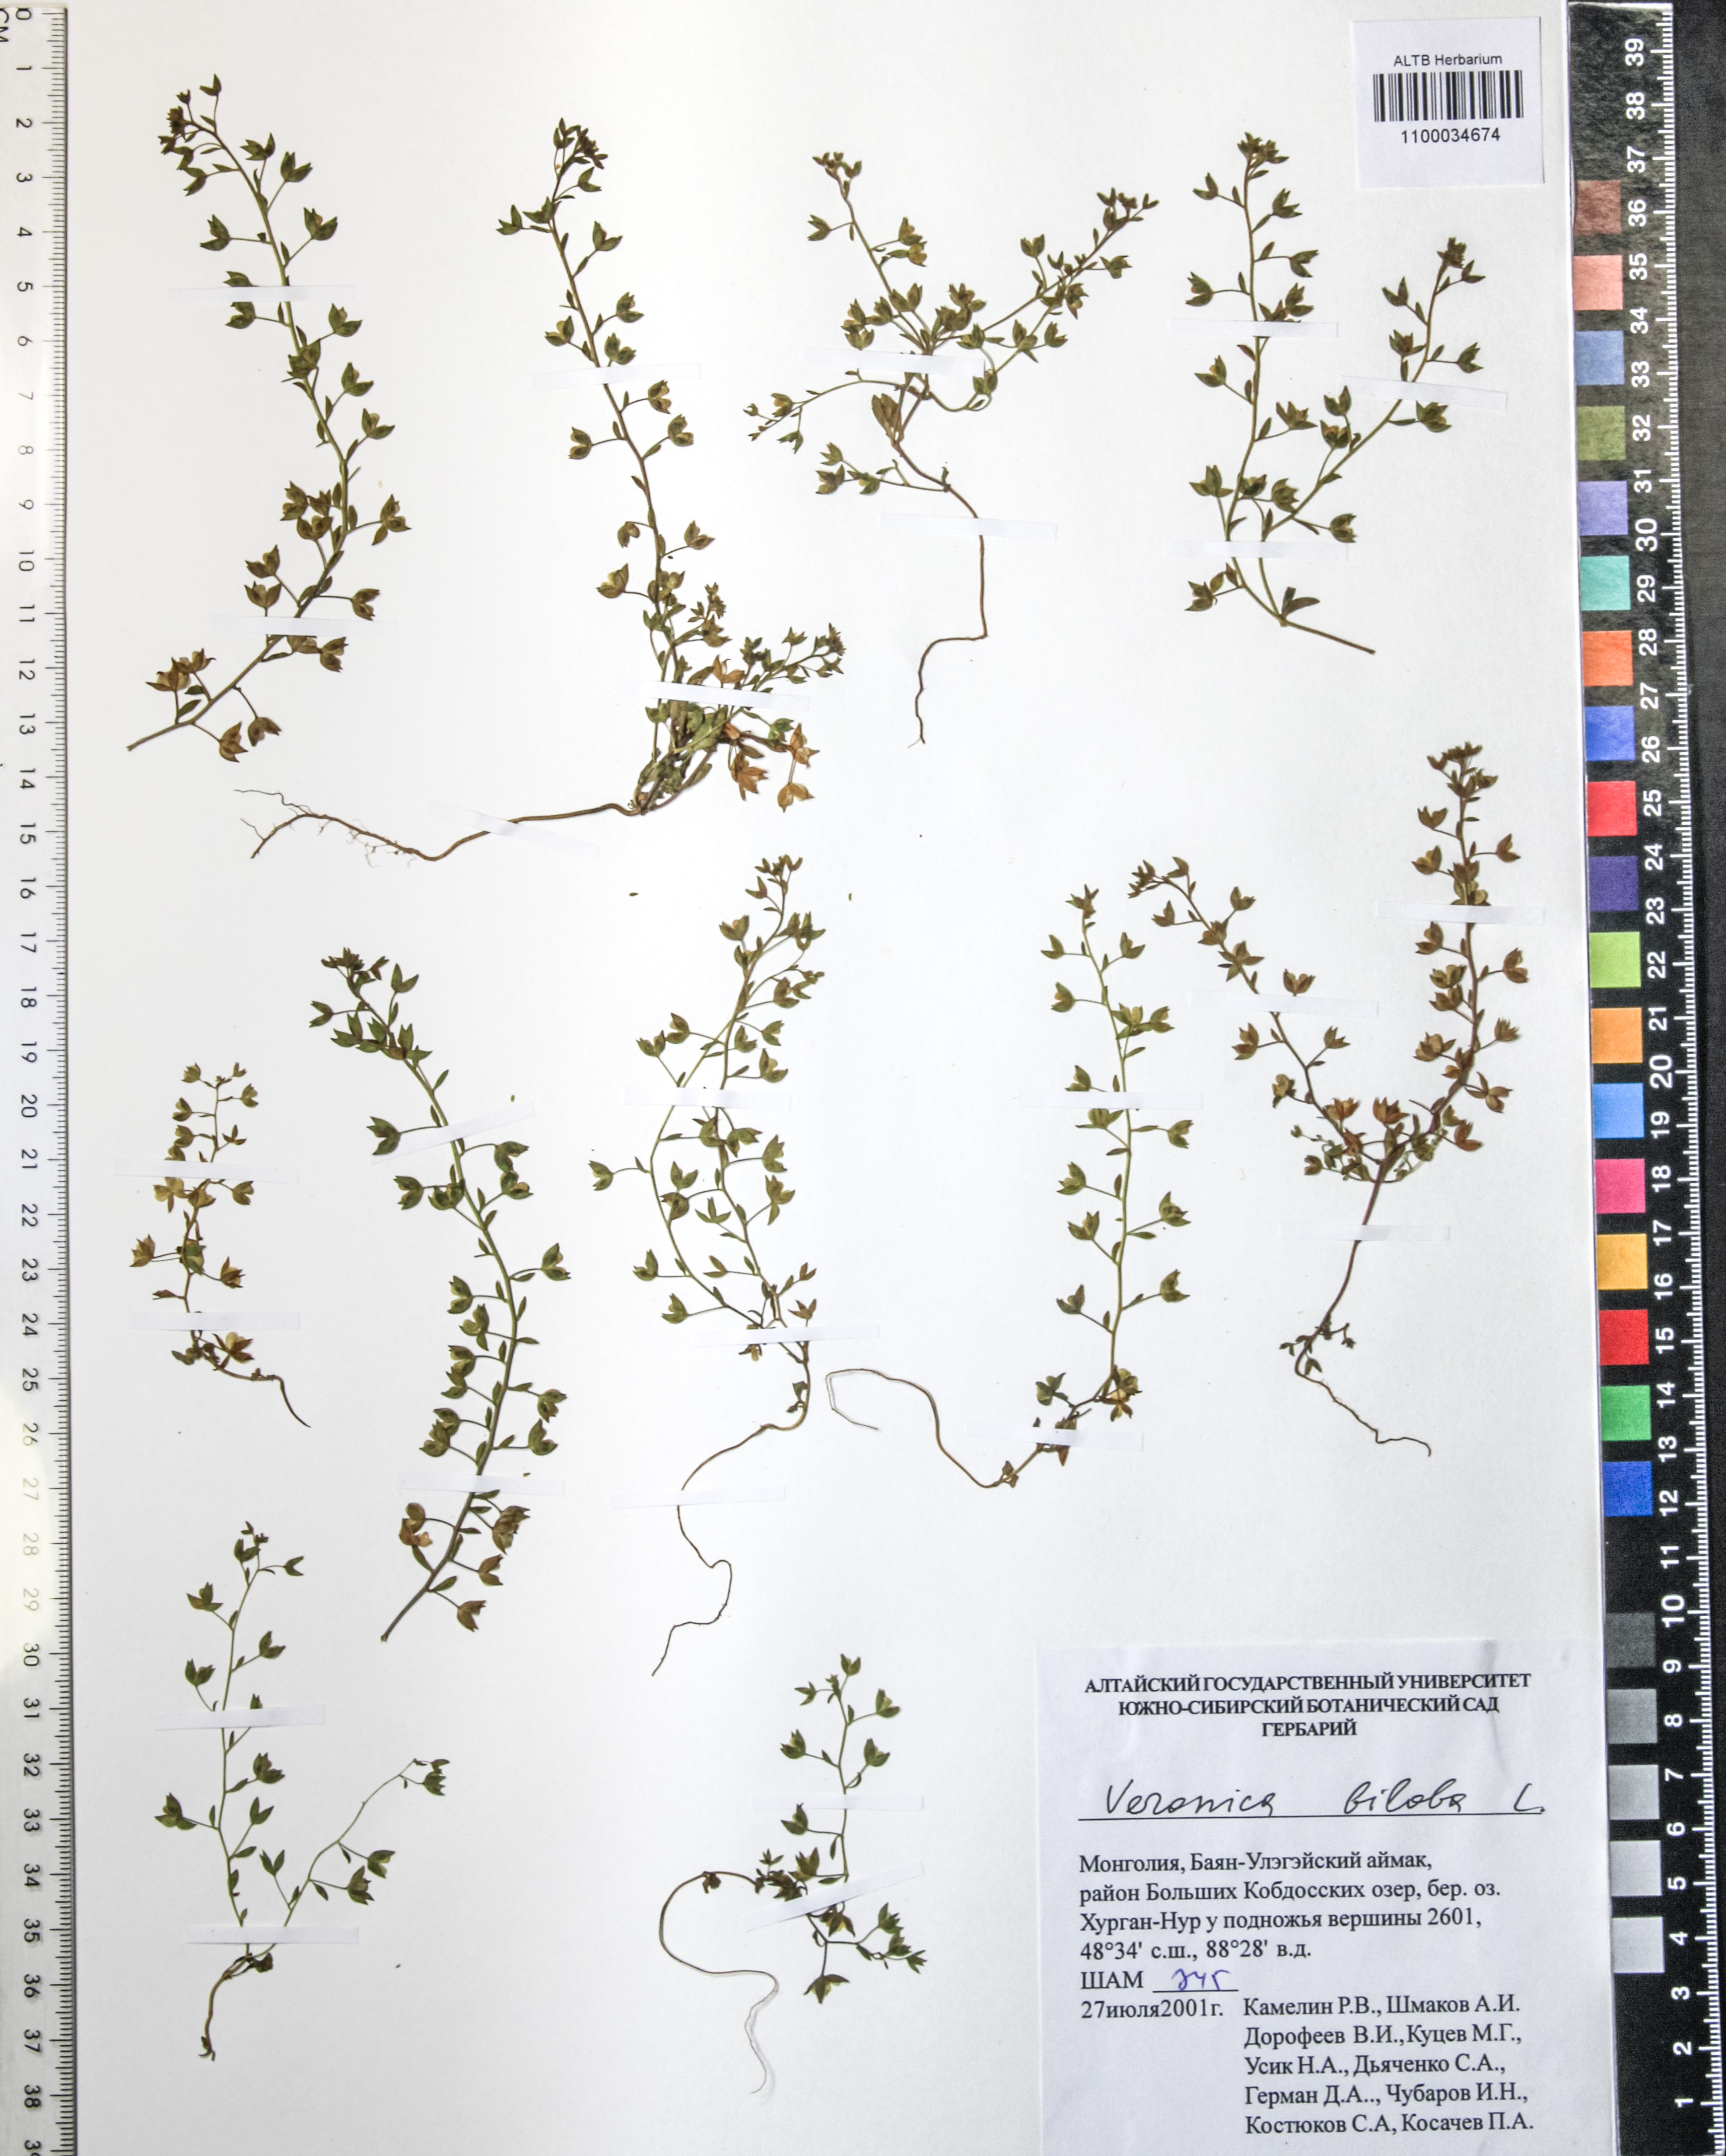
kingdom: Plantae
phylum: Tracheophyta
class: Magnoliopsida
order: Lamiales
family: Plantaginaceae
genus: Veronica
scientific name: Veronica biloba
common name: Twolobe speedwell
